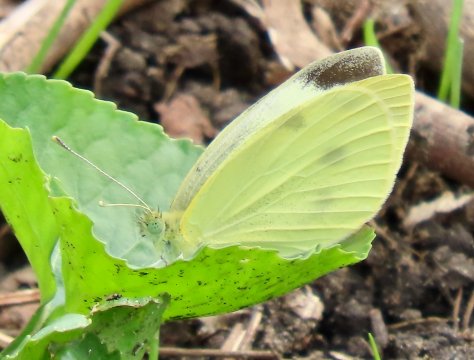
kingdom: Animalia
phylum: Arthropoda
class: Insecta
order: Lepidoptera
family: Pieridae
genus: Pieris
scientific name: Pieris rapae
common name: Cabbage White
